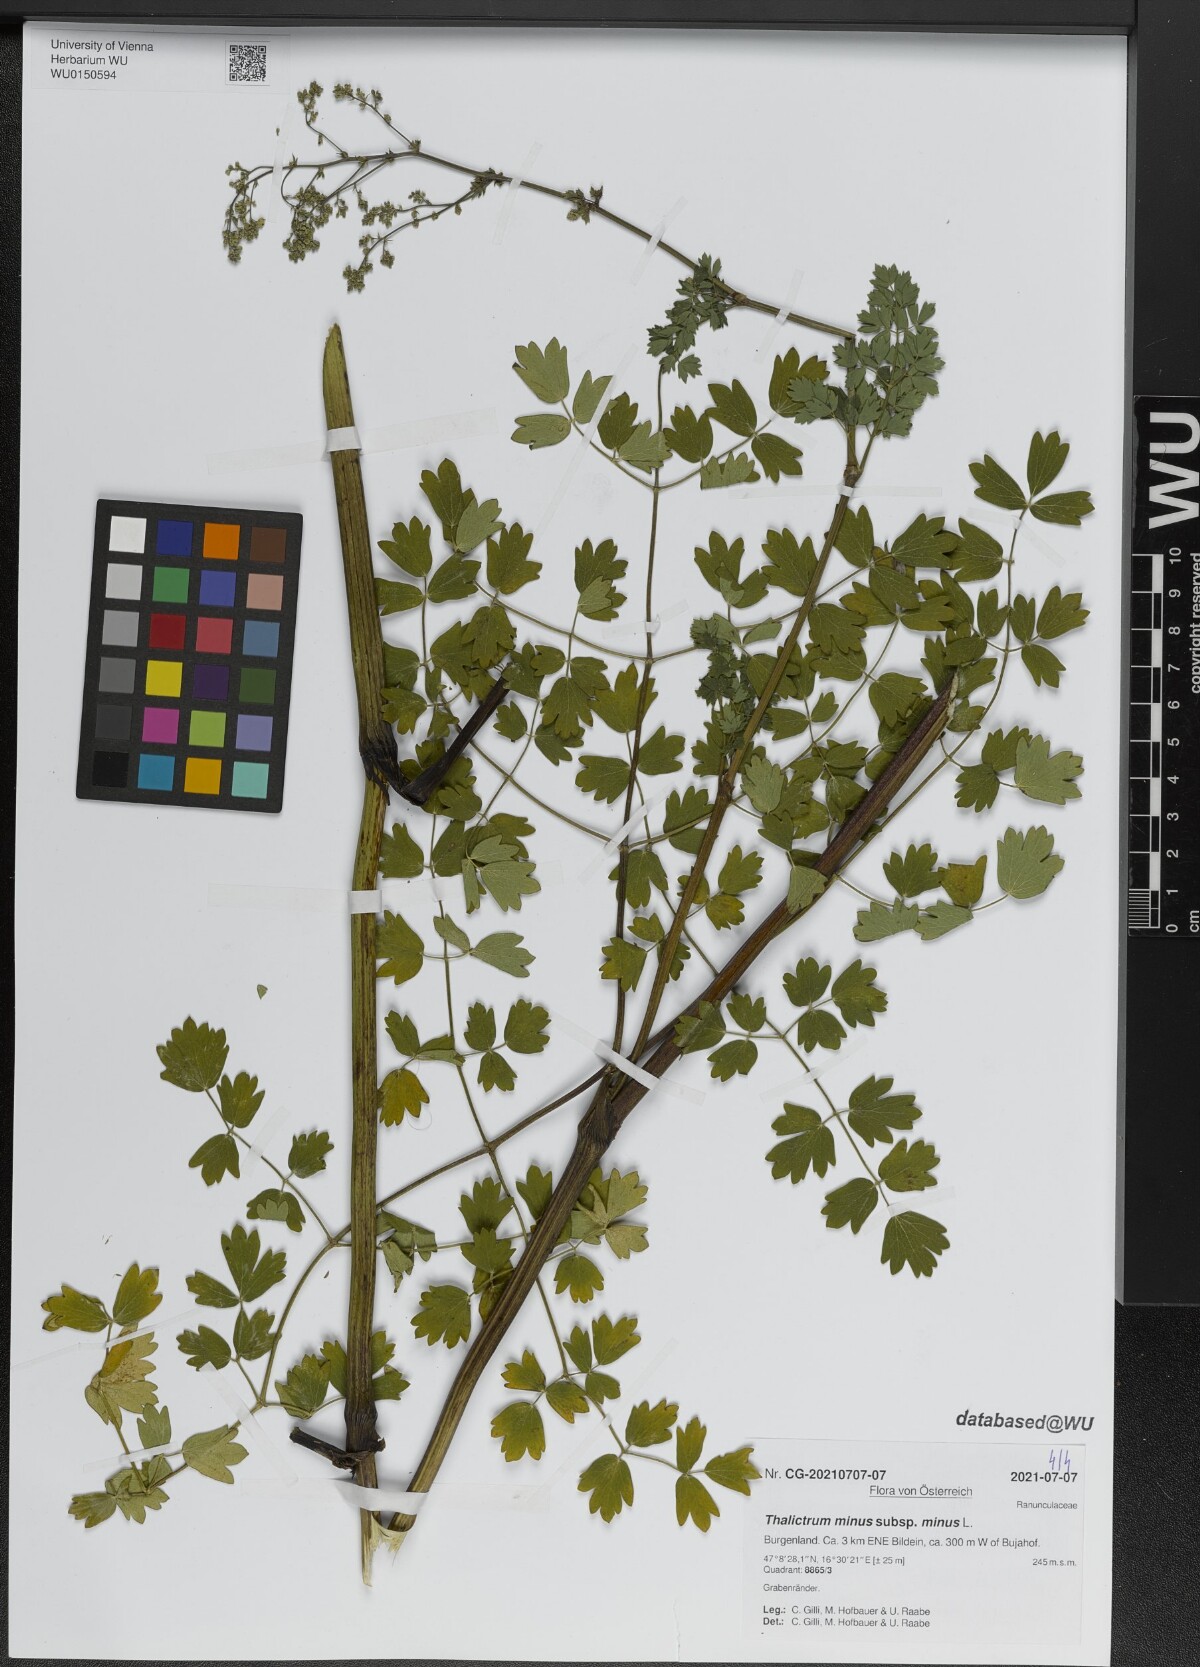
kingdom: Plantae
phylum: Tracheophyta
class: Magnoliopsida
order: Ranunculales
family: Ranunculaceae
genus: Thalictrum
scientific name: Thalictrum minus
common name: Lesser meadow-rue
